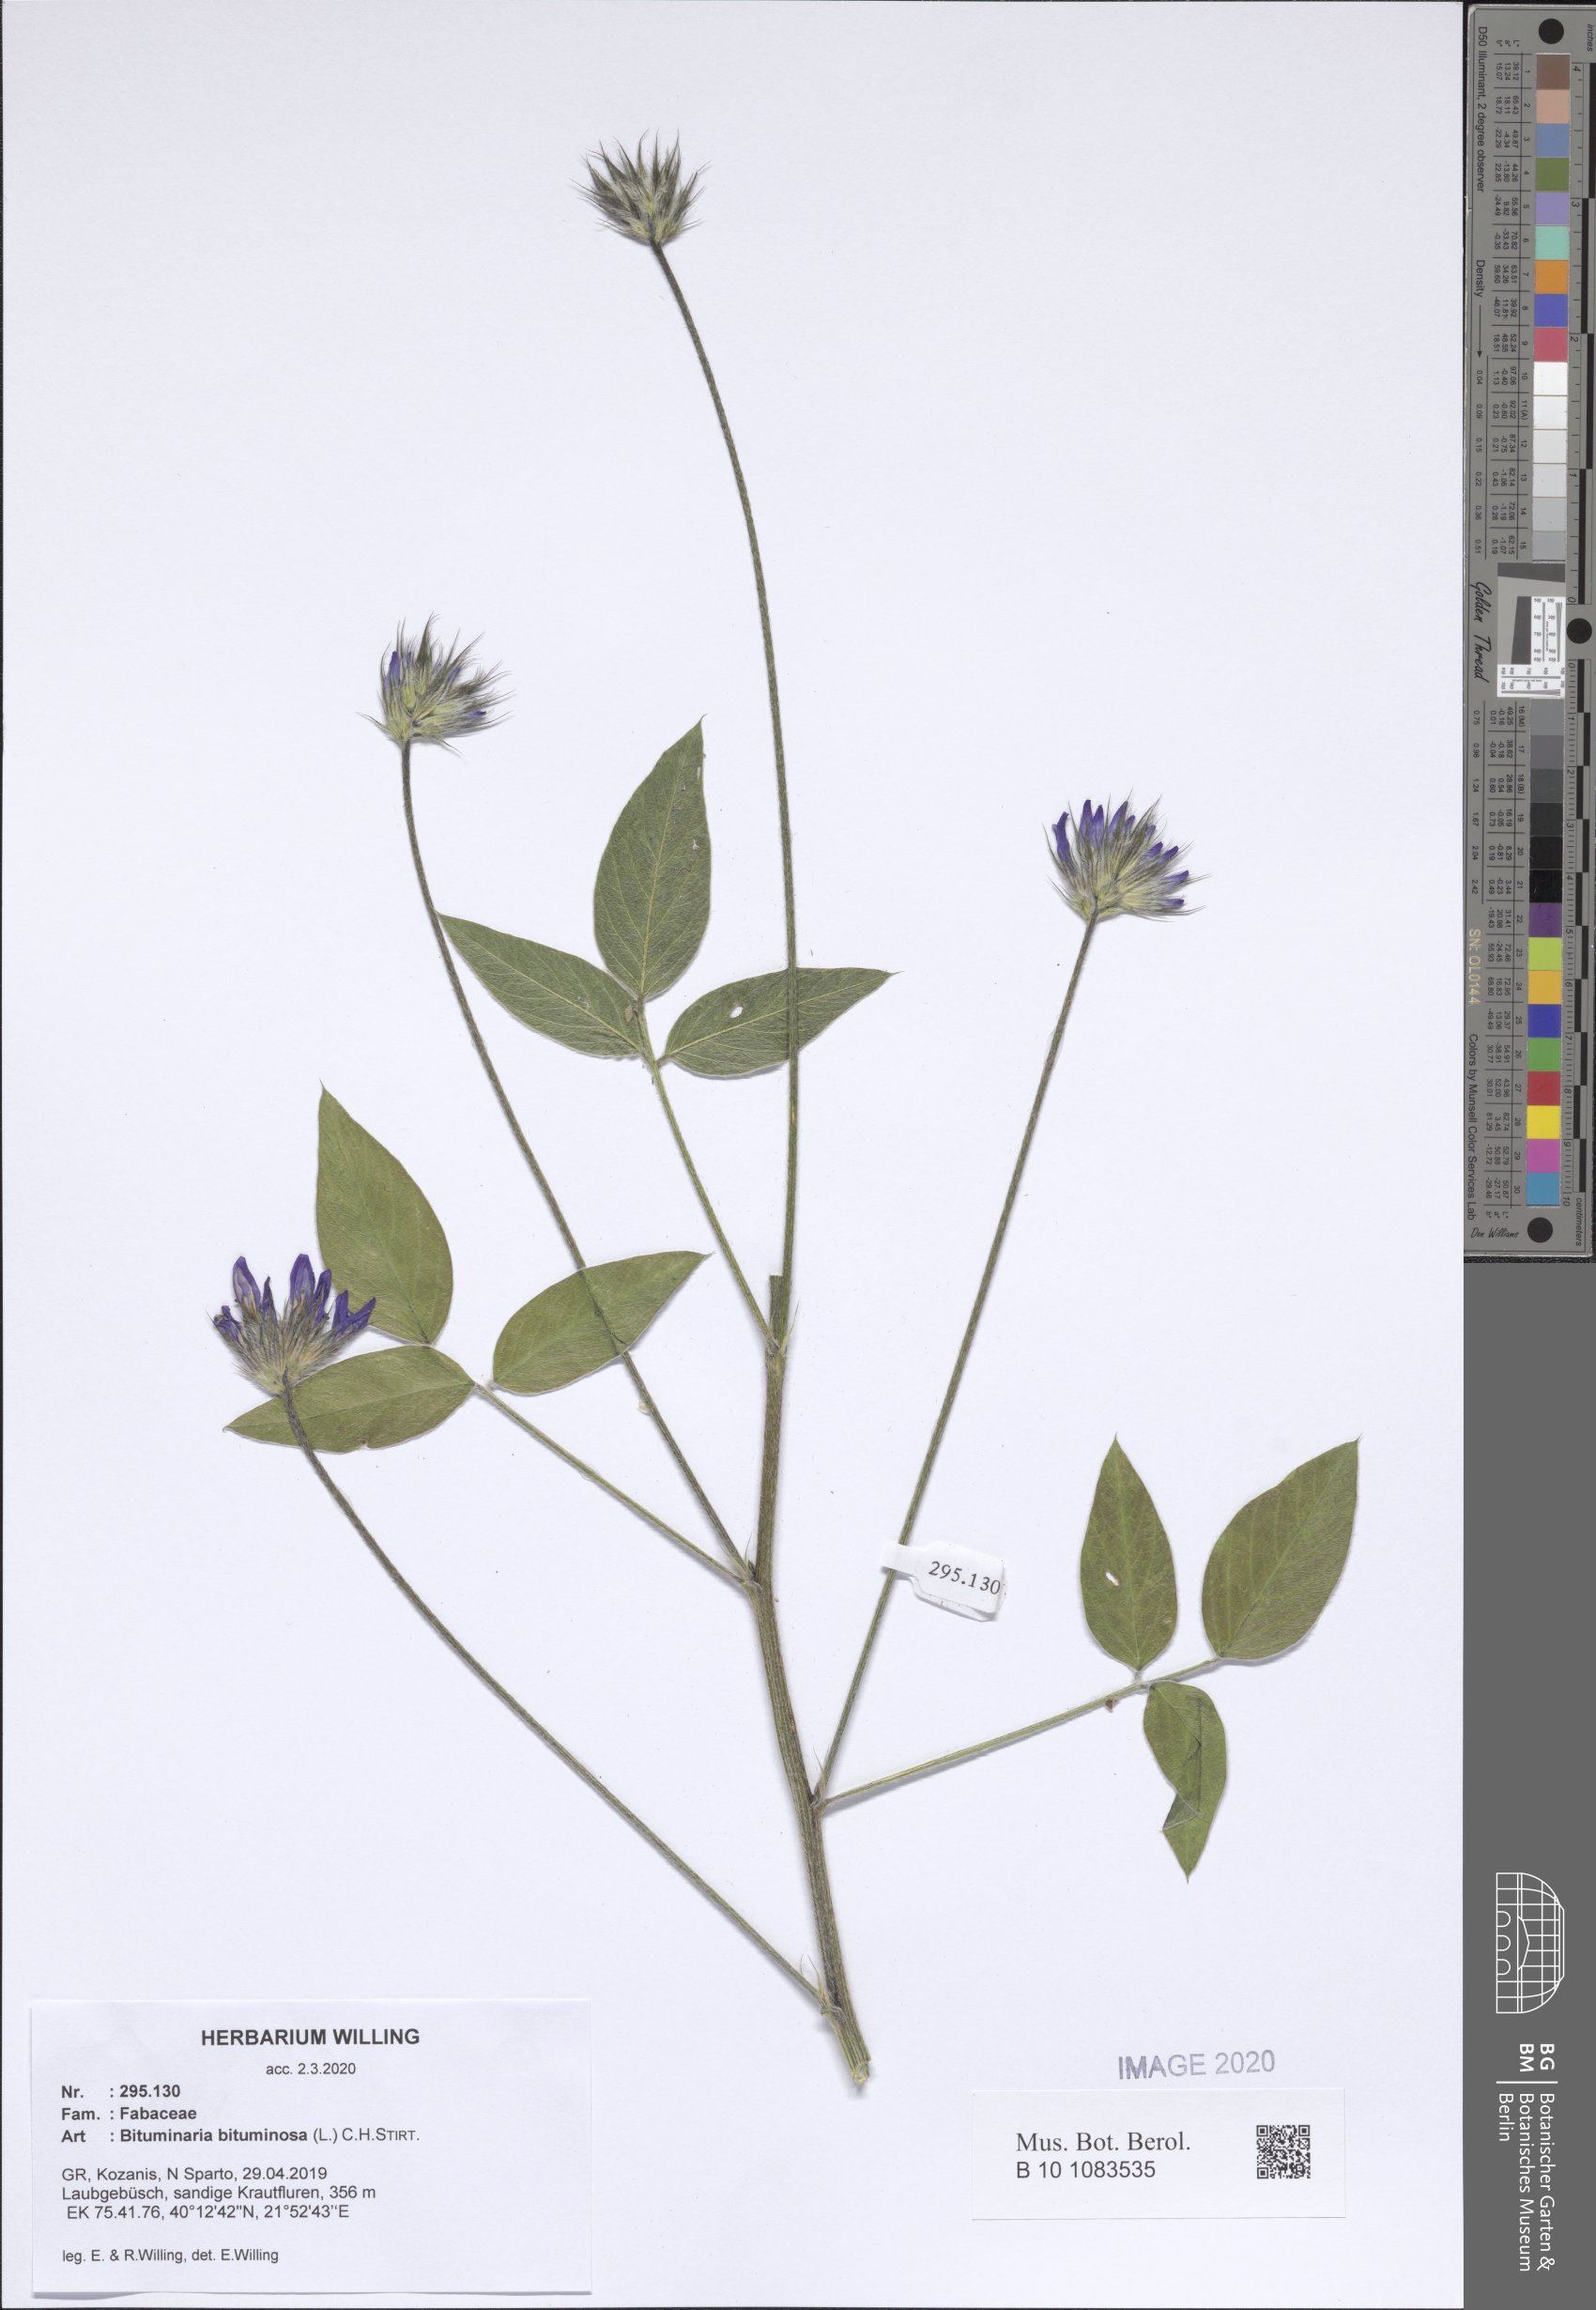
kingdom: Plantae
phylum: Tracheophyta
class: Magnoliopsida
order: Fabales
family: Fabaceae
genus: Bituminaria
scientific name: Bituminaria bituminosa
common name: Arabian pea
